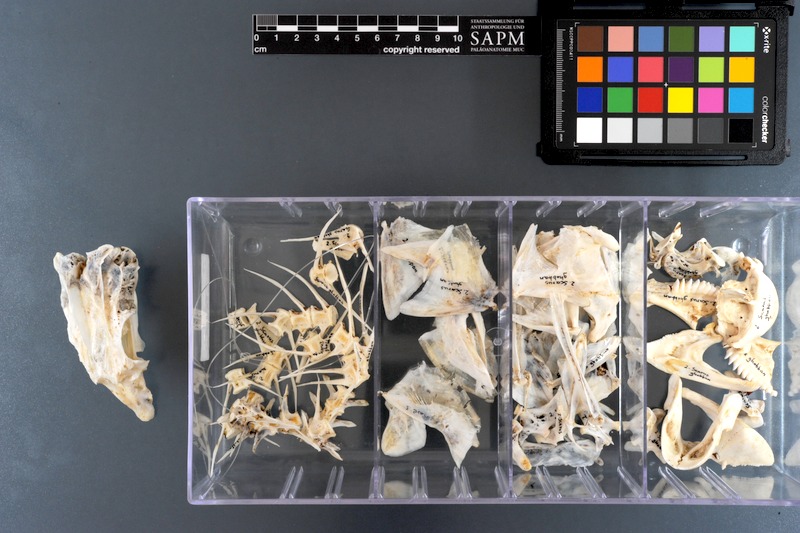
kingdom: Animalia
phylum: Chordata
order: Perciformes
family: Scaridae
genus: Scarus
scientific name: Scarus ghobban
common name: Blue-barred parrotfish
